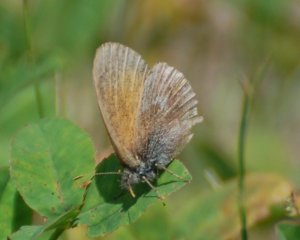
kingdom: Animalia
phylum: Arthropoda
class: Insecta
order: Lepidoptera
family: Nymphalidae
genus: Coenonympha
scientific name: Coenonympha tullia
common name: Large Heath
